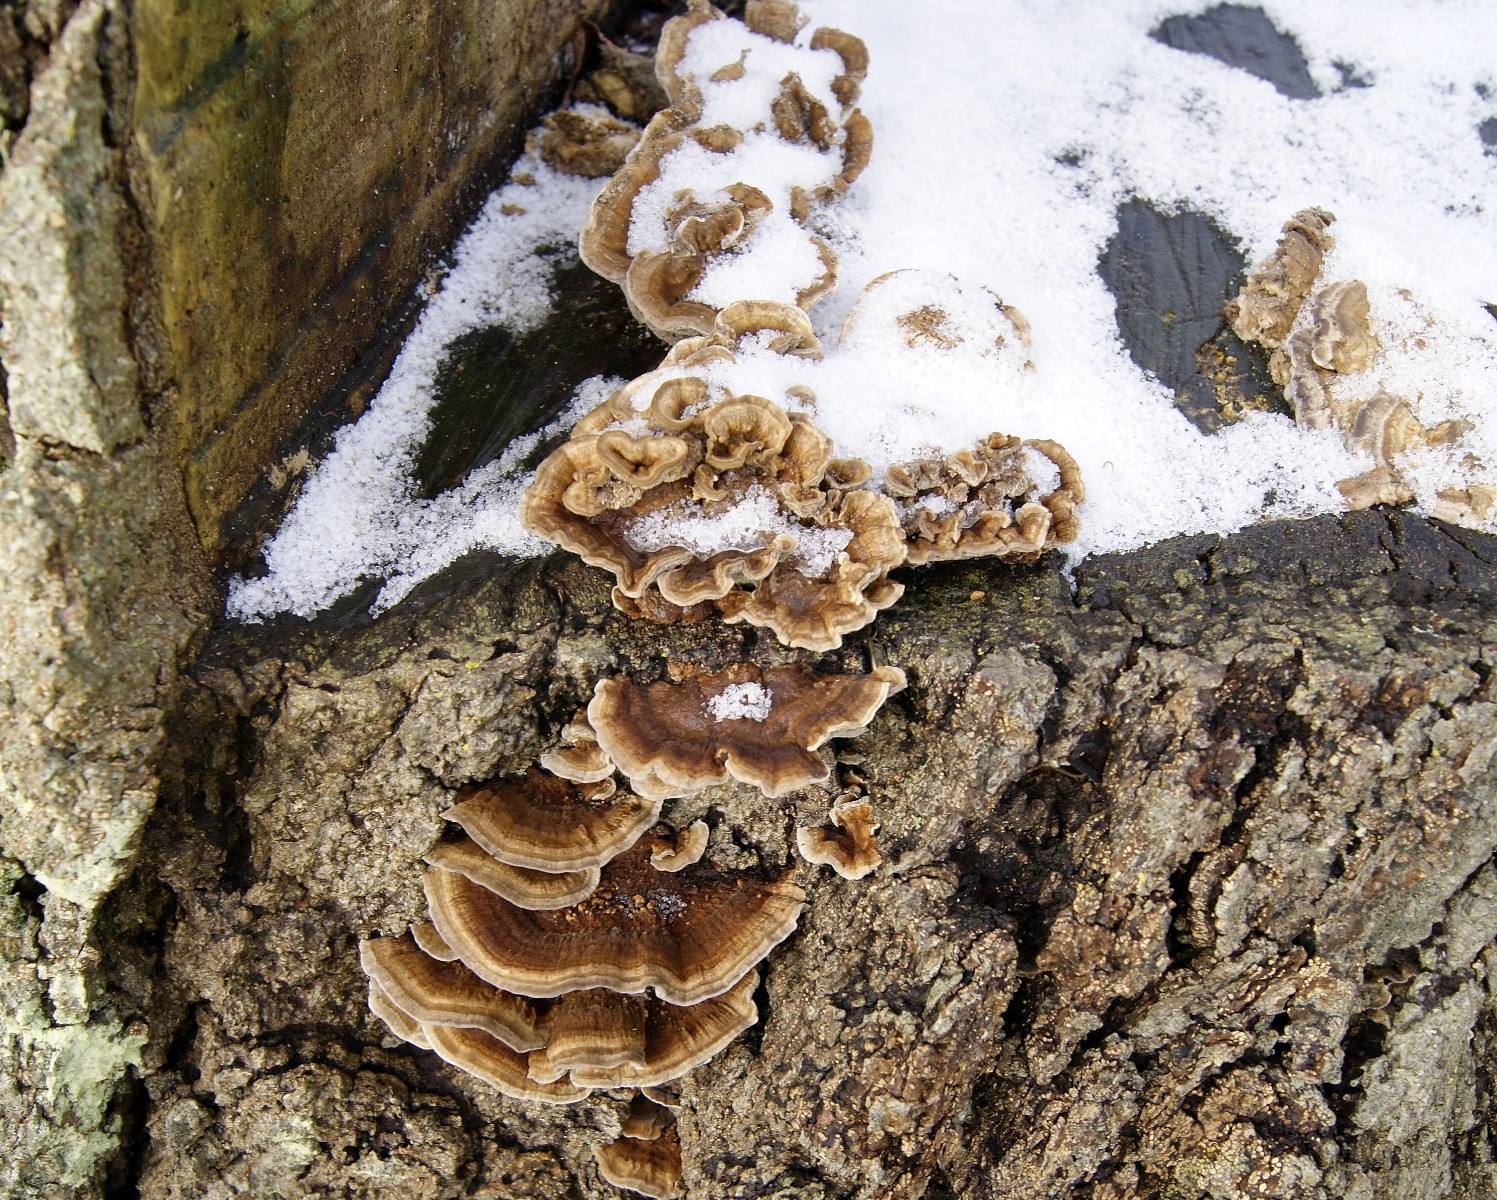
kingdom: Fungi
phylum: Basidiomycota
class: Agaricomycetes
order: Polyporales
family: Polyporaceae
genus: Trametes
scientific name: Trametes versicolor
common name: broget læderporesvamp
